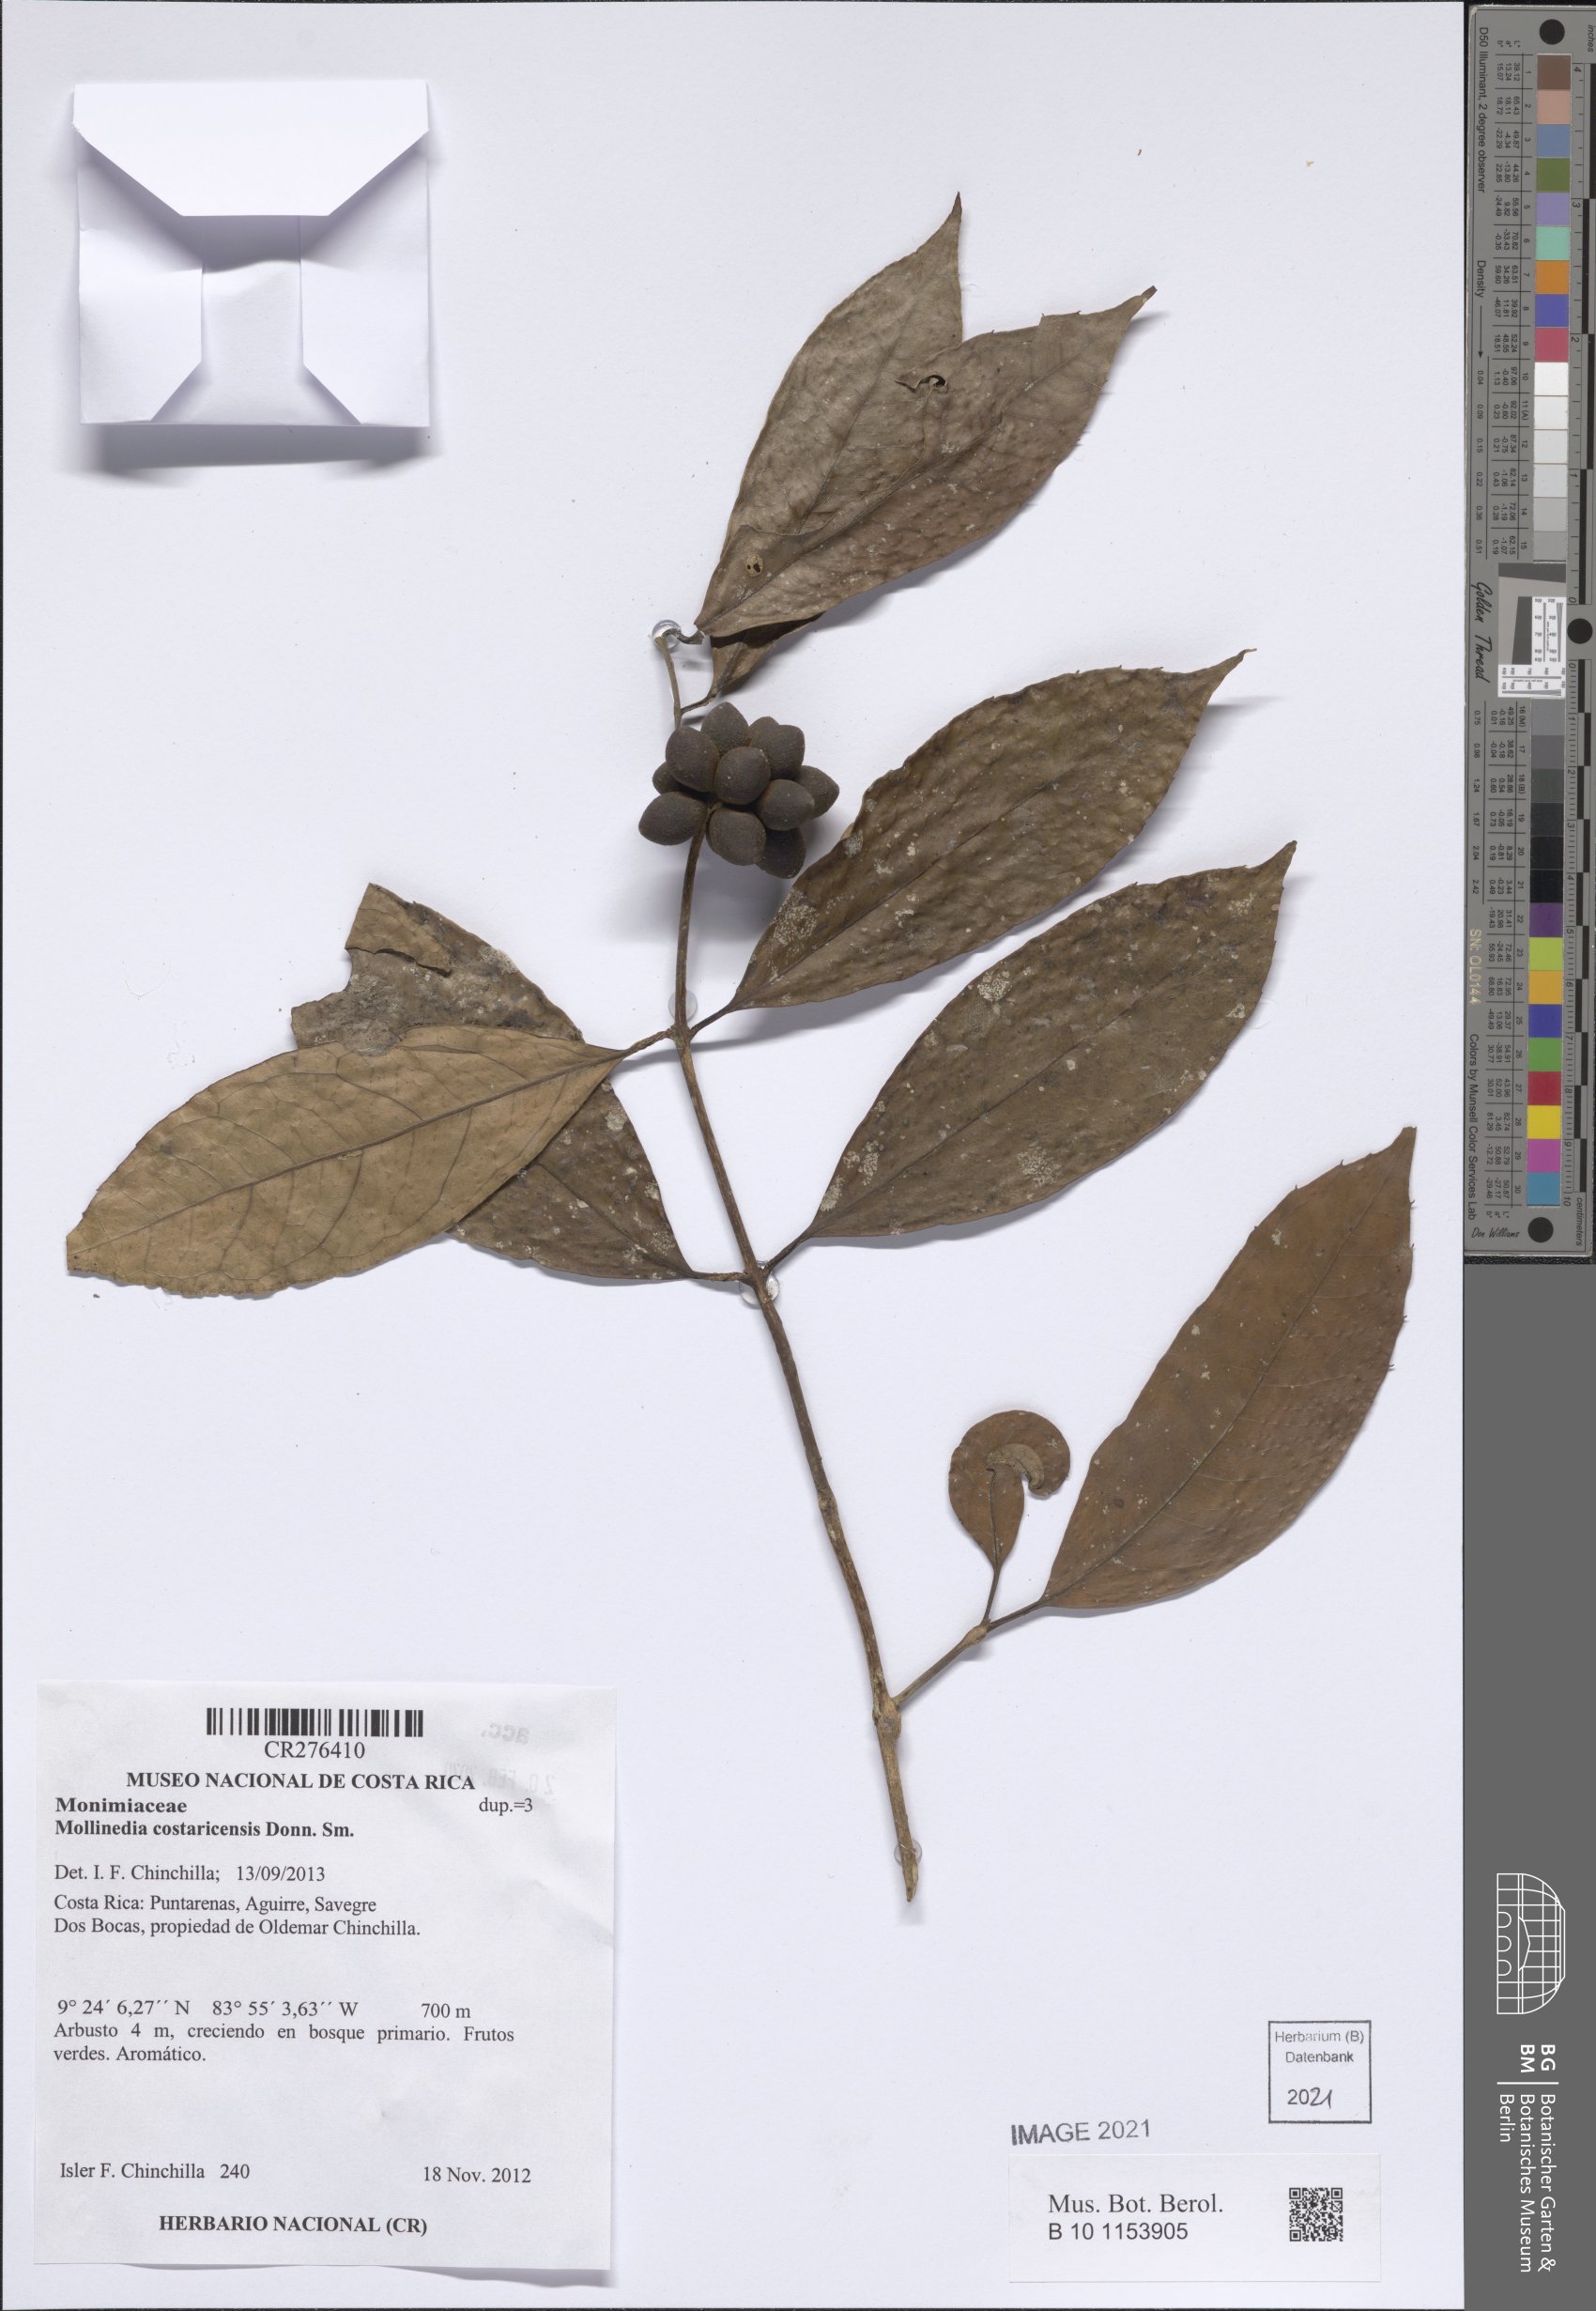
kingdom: Plantae
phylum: Tracheophyta
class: Magnoliopsida
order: Laurales
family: Monimiaceae
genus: Mollinedia
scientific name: Mollinedia viridiflora
